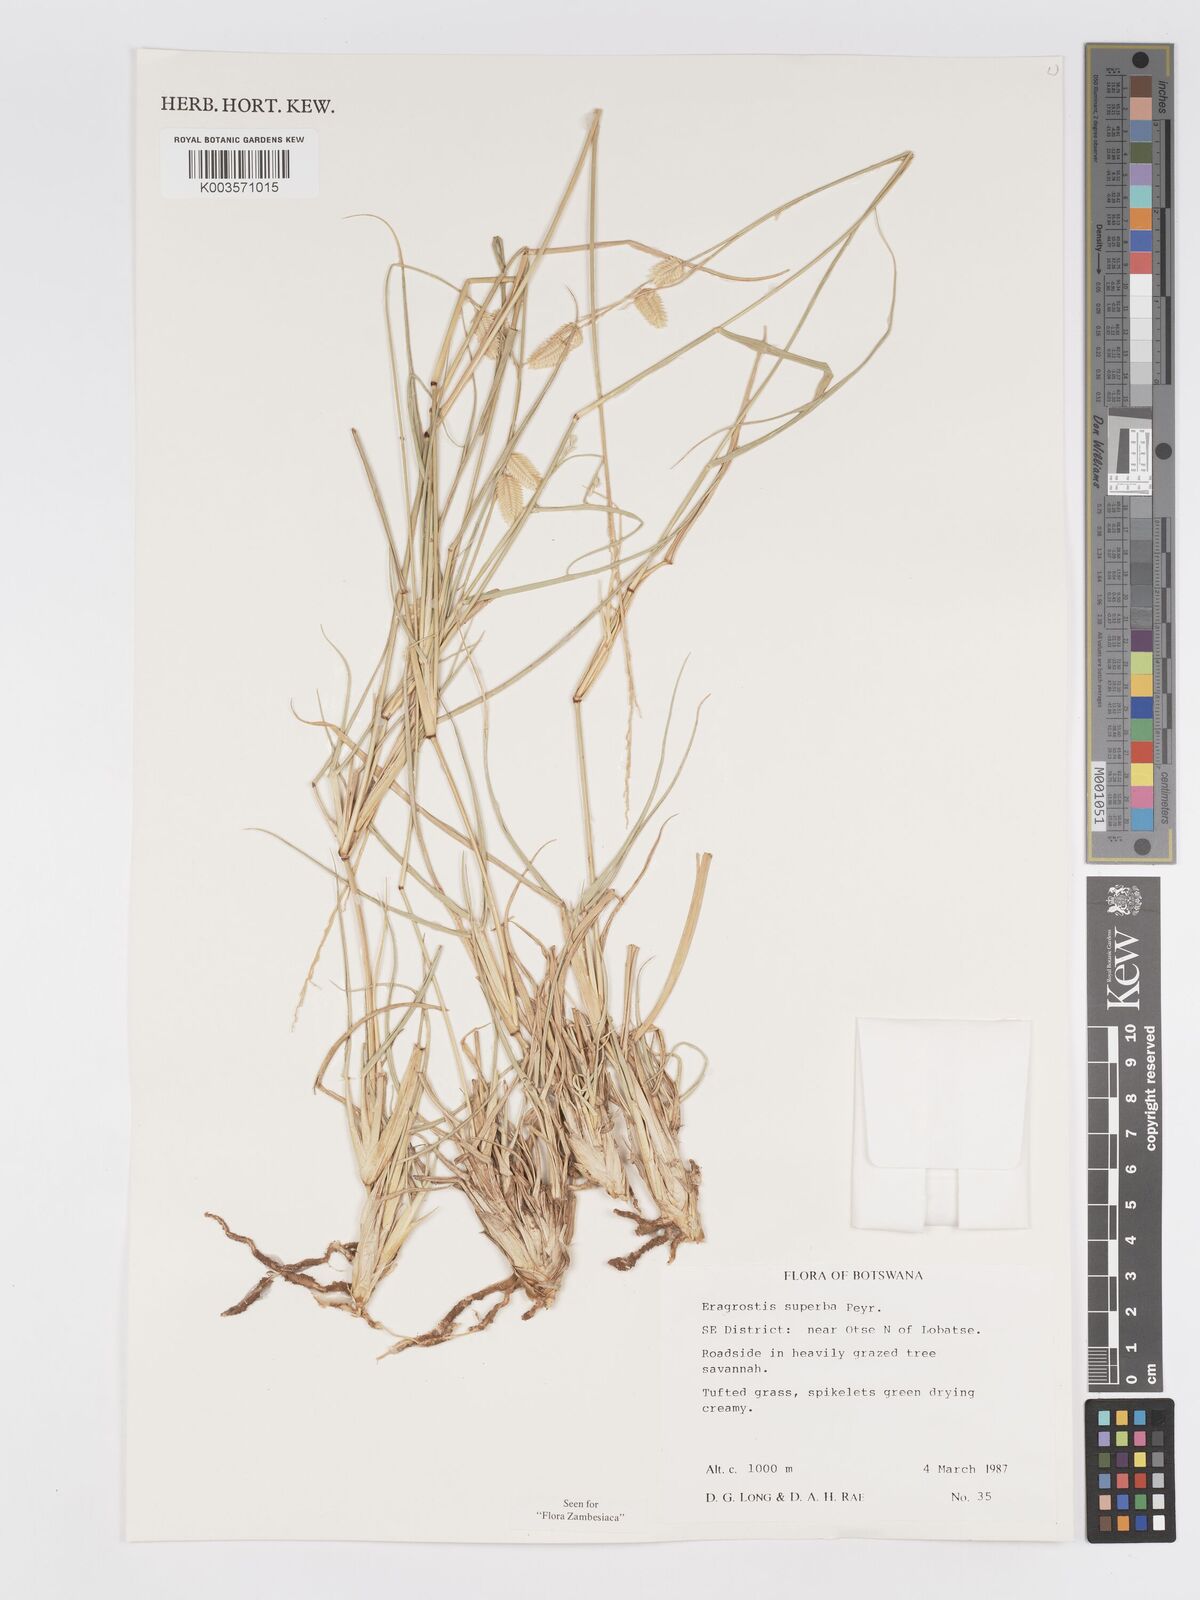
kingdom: Plantae
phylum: Tracheophyta
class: Liliopsida
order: Poales
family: Poaceae
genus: Eragrostis
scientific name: Eragrostis superba
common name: Wilman lovegrass
